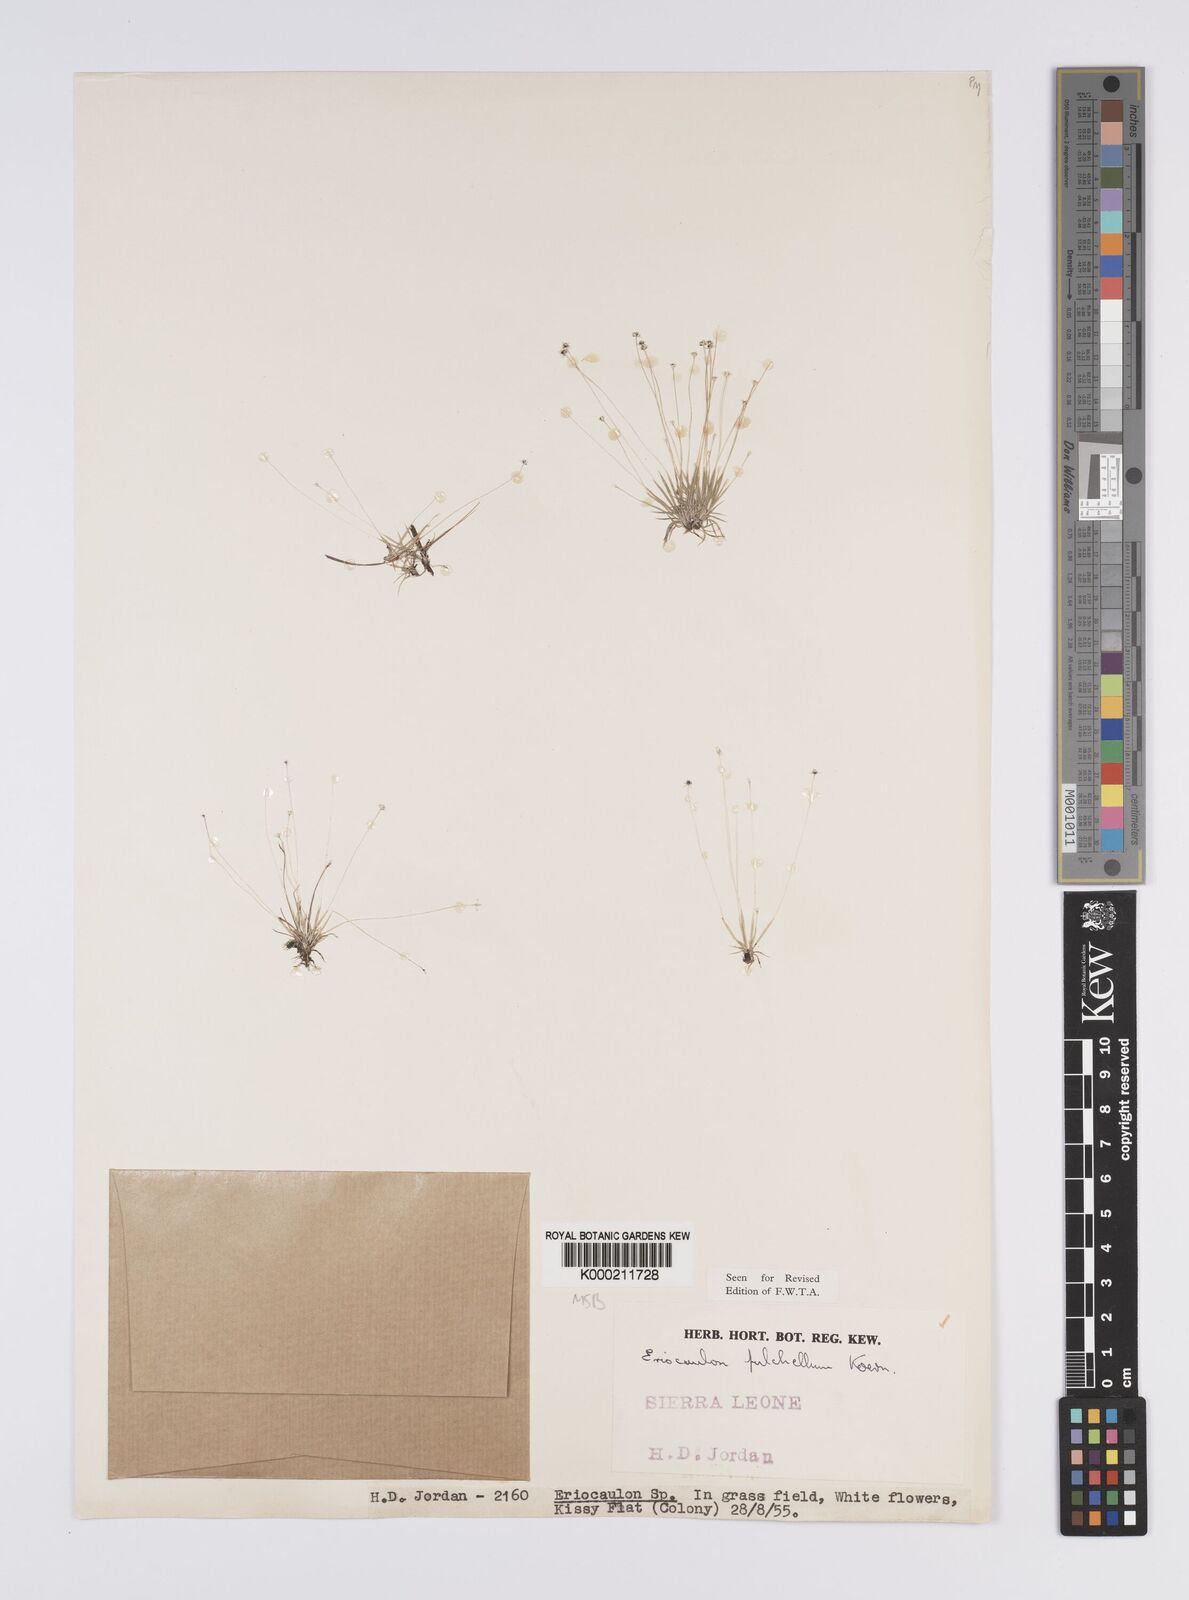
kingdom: Plantae
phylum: Tracheophyta
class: Liliopsida
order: Poales
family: Eriocaulaceae
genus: Eriocaulon
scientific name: Eriocaulon
